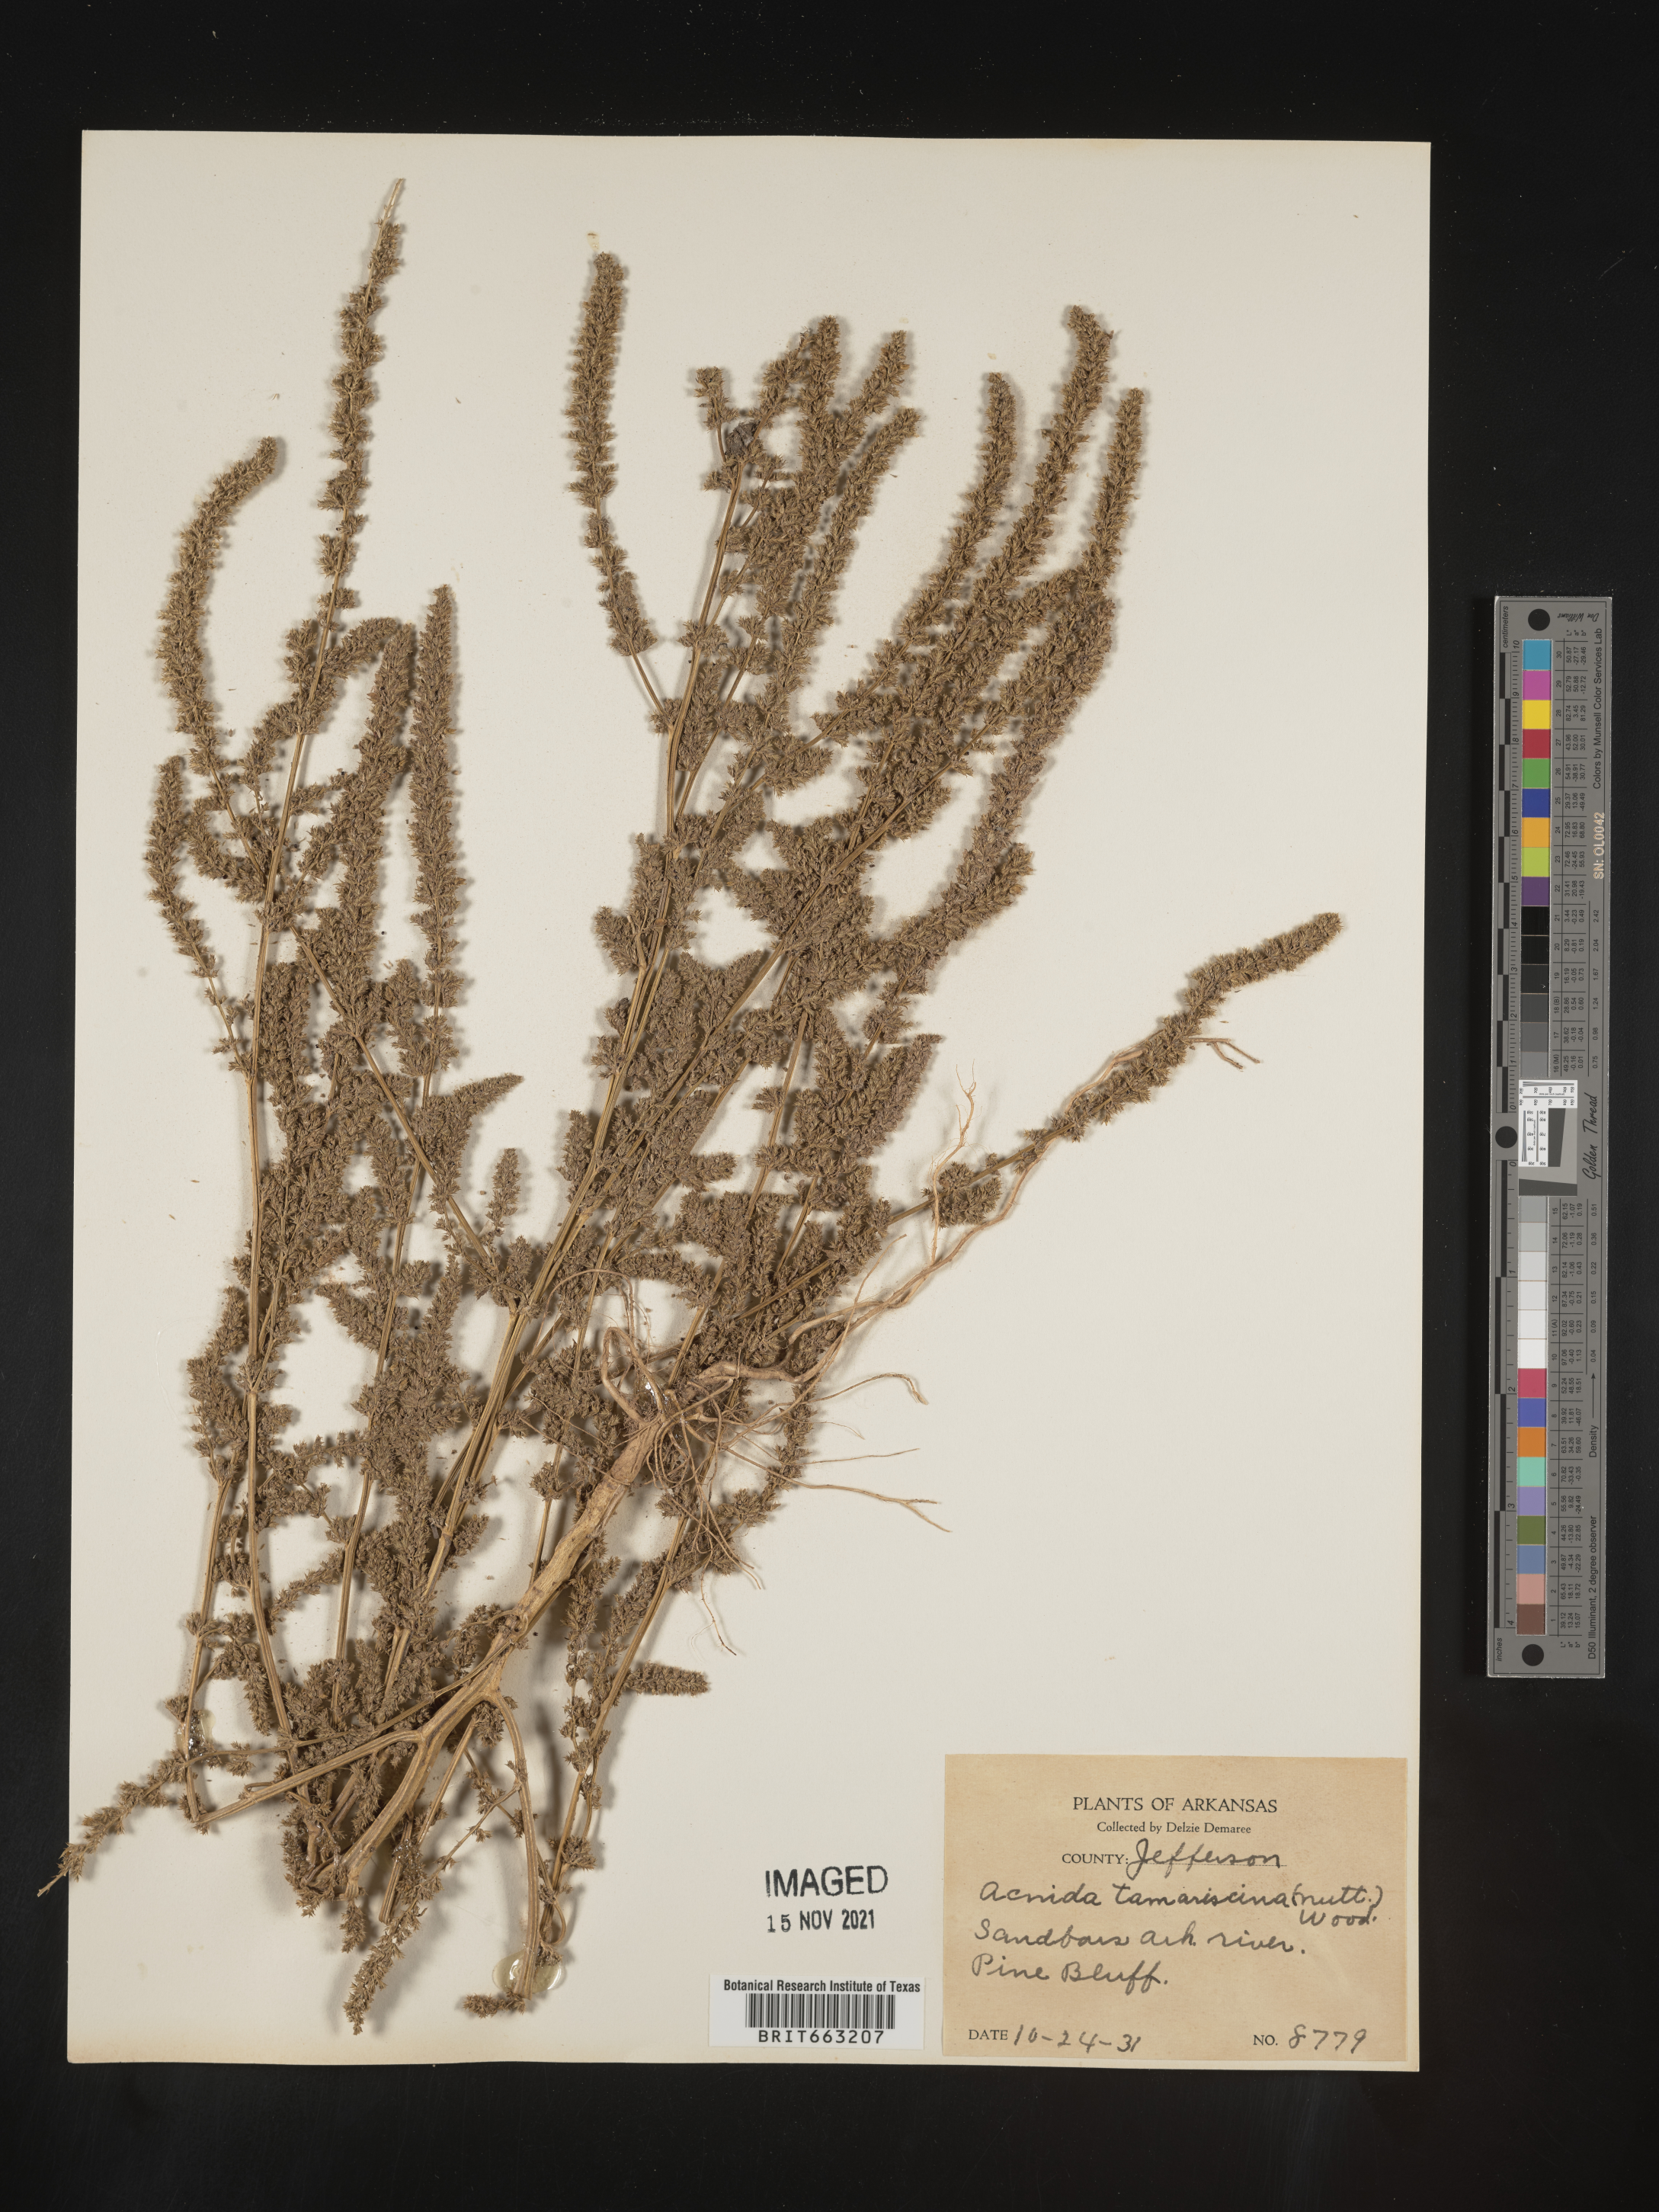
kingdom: Plantae
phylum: Tracheophyta
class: Magnoliopsida
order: Caryophyllales
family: Amaranthaceae
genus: Amaranthus
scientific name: Amaranthus tamariscinus
